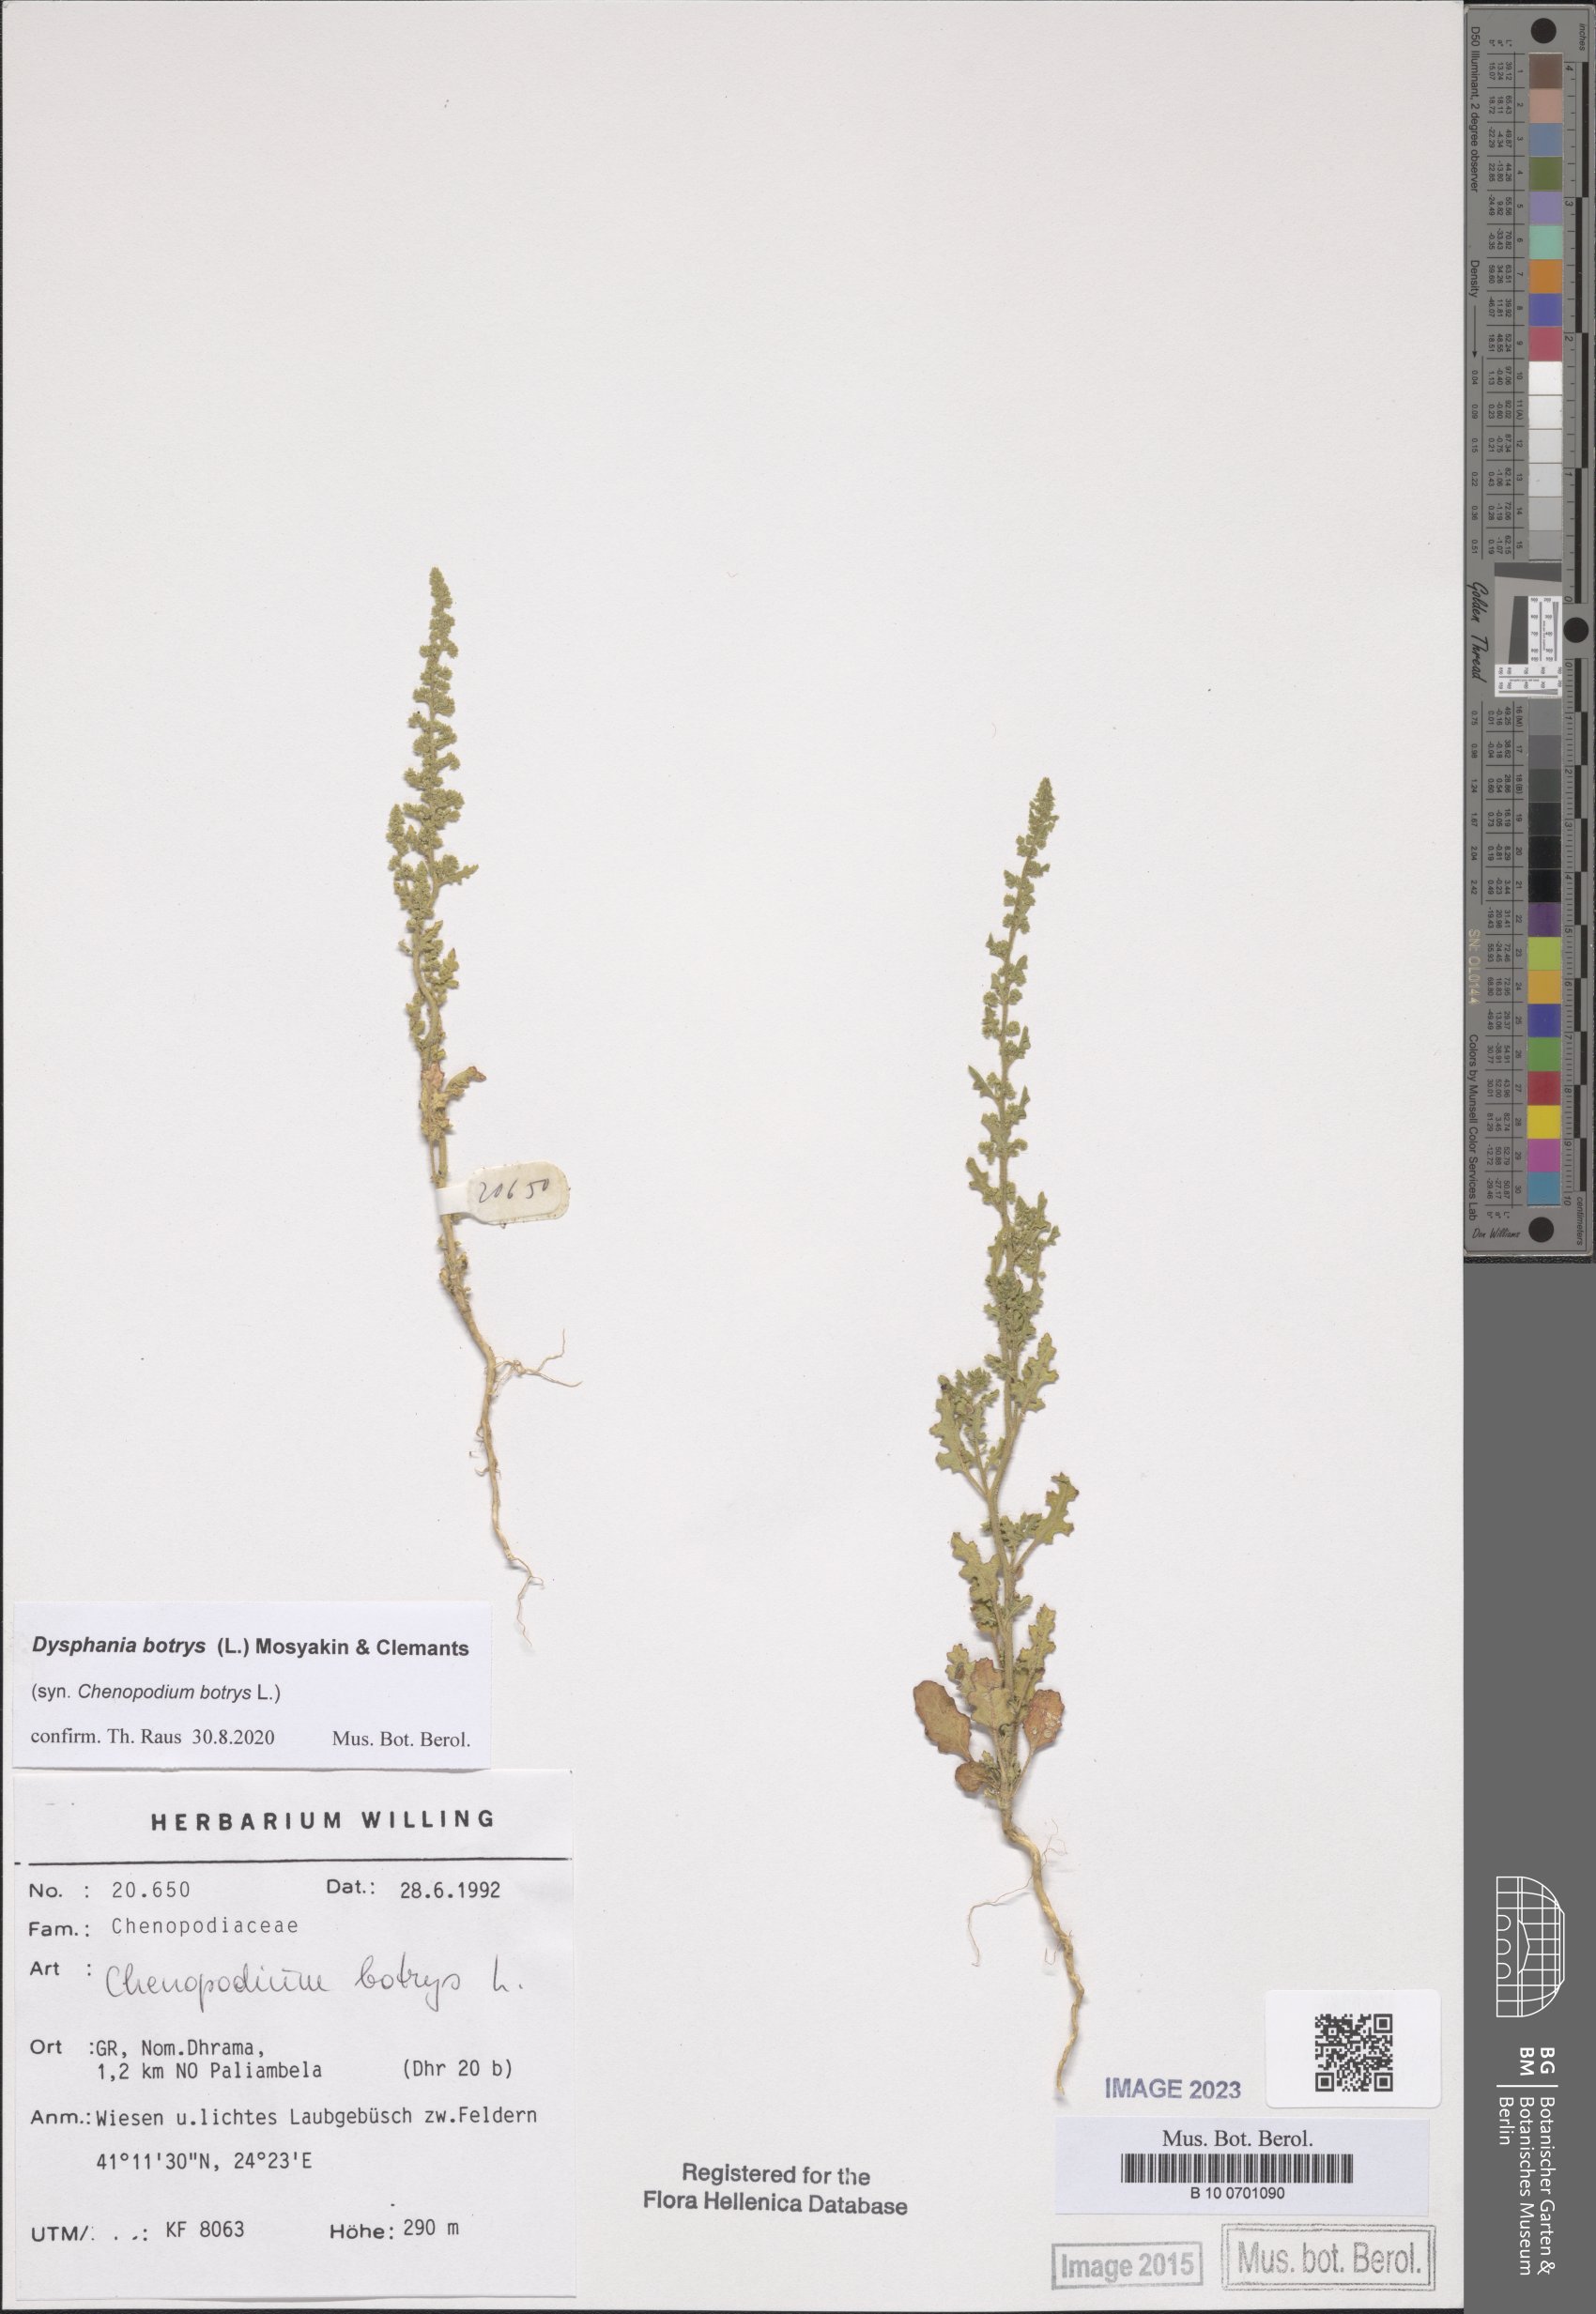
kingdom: Plantae
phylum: Tracheophyta
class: Magnoliopsida
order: Caryophyllales
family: Amaranthaceae
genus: Dysphania
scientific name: Dysphania botrys
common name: Feather-geranium
